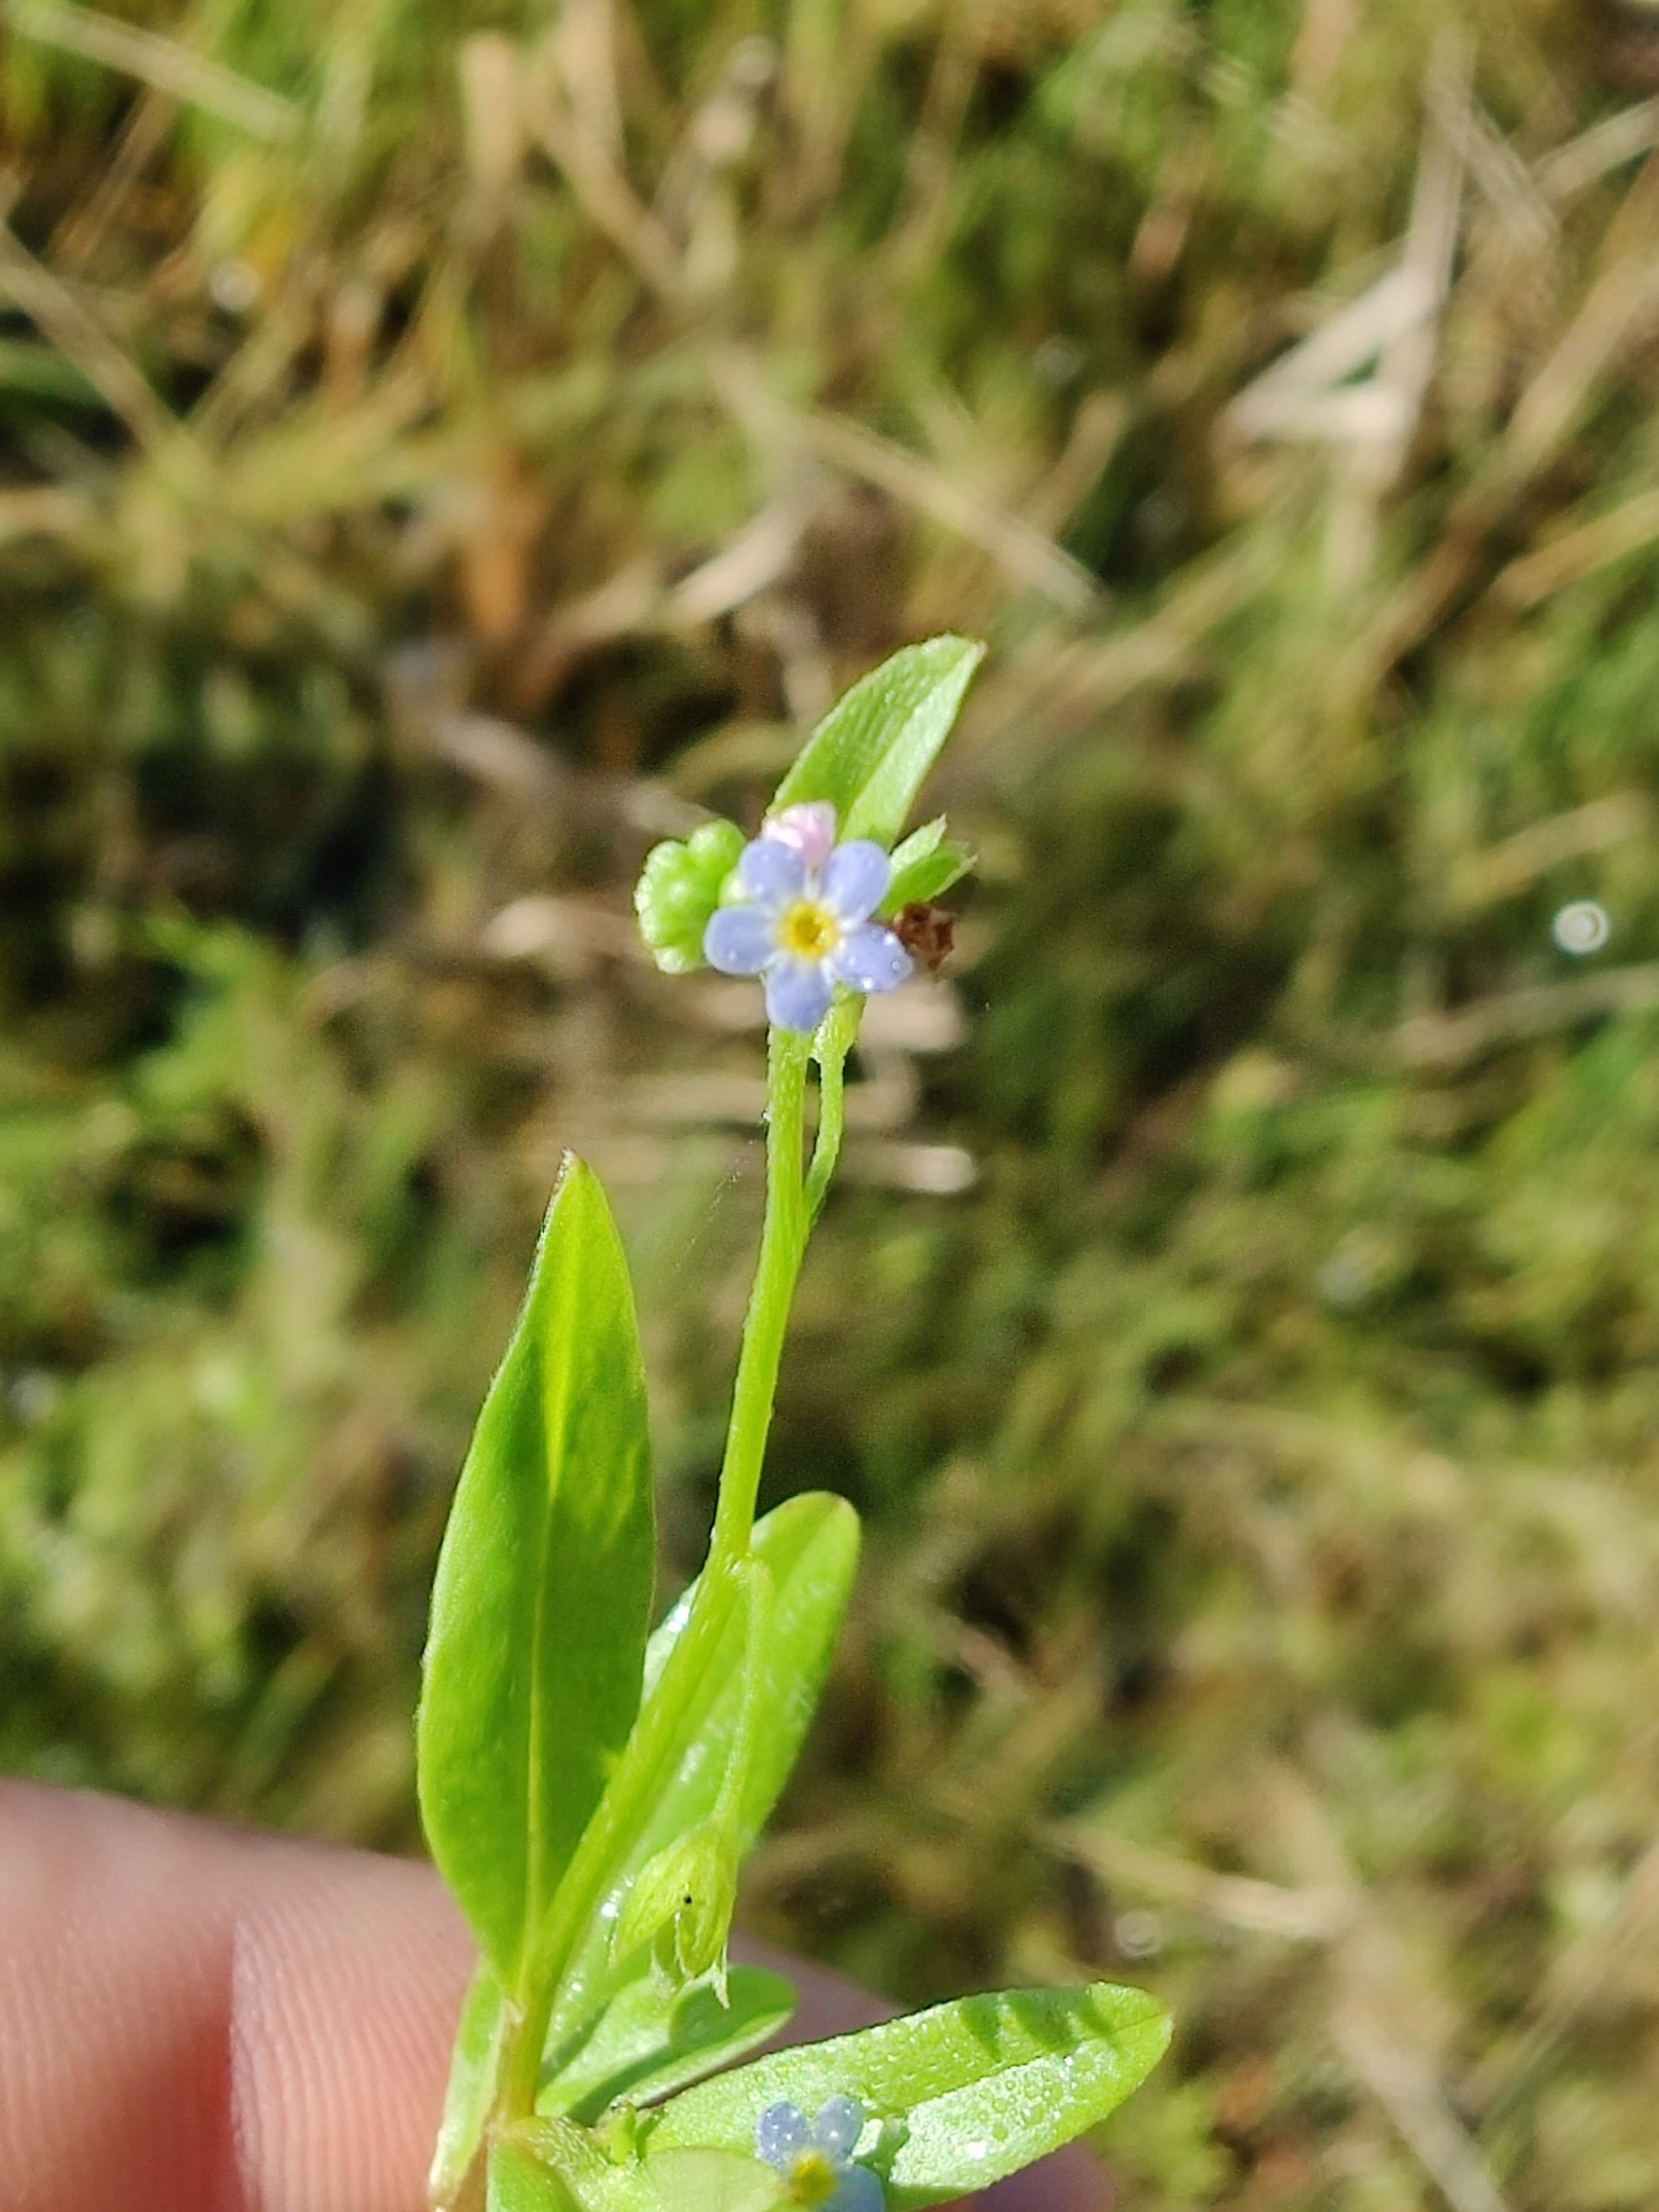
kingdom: Plantae
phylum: Tracheophyta
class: Magnoliopsida
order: Boraginales
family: Boraginaceae
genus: Myosotis
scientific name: Myosotis laxa
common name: Sump-forglemmigej
